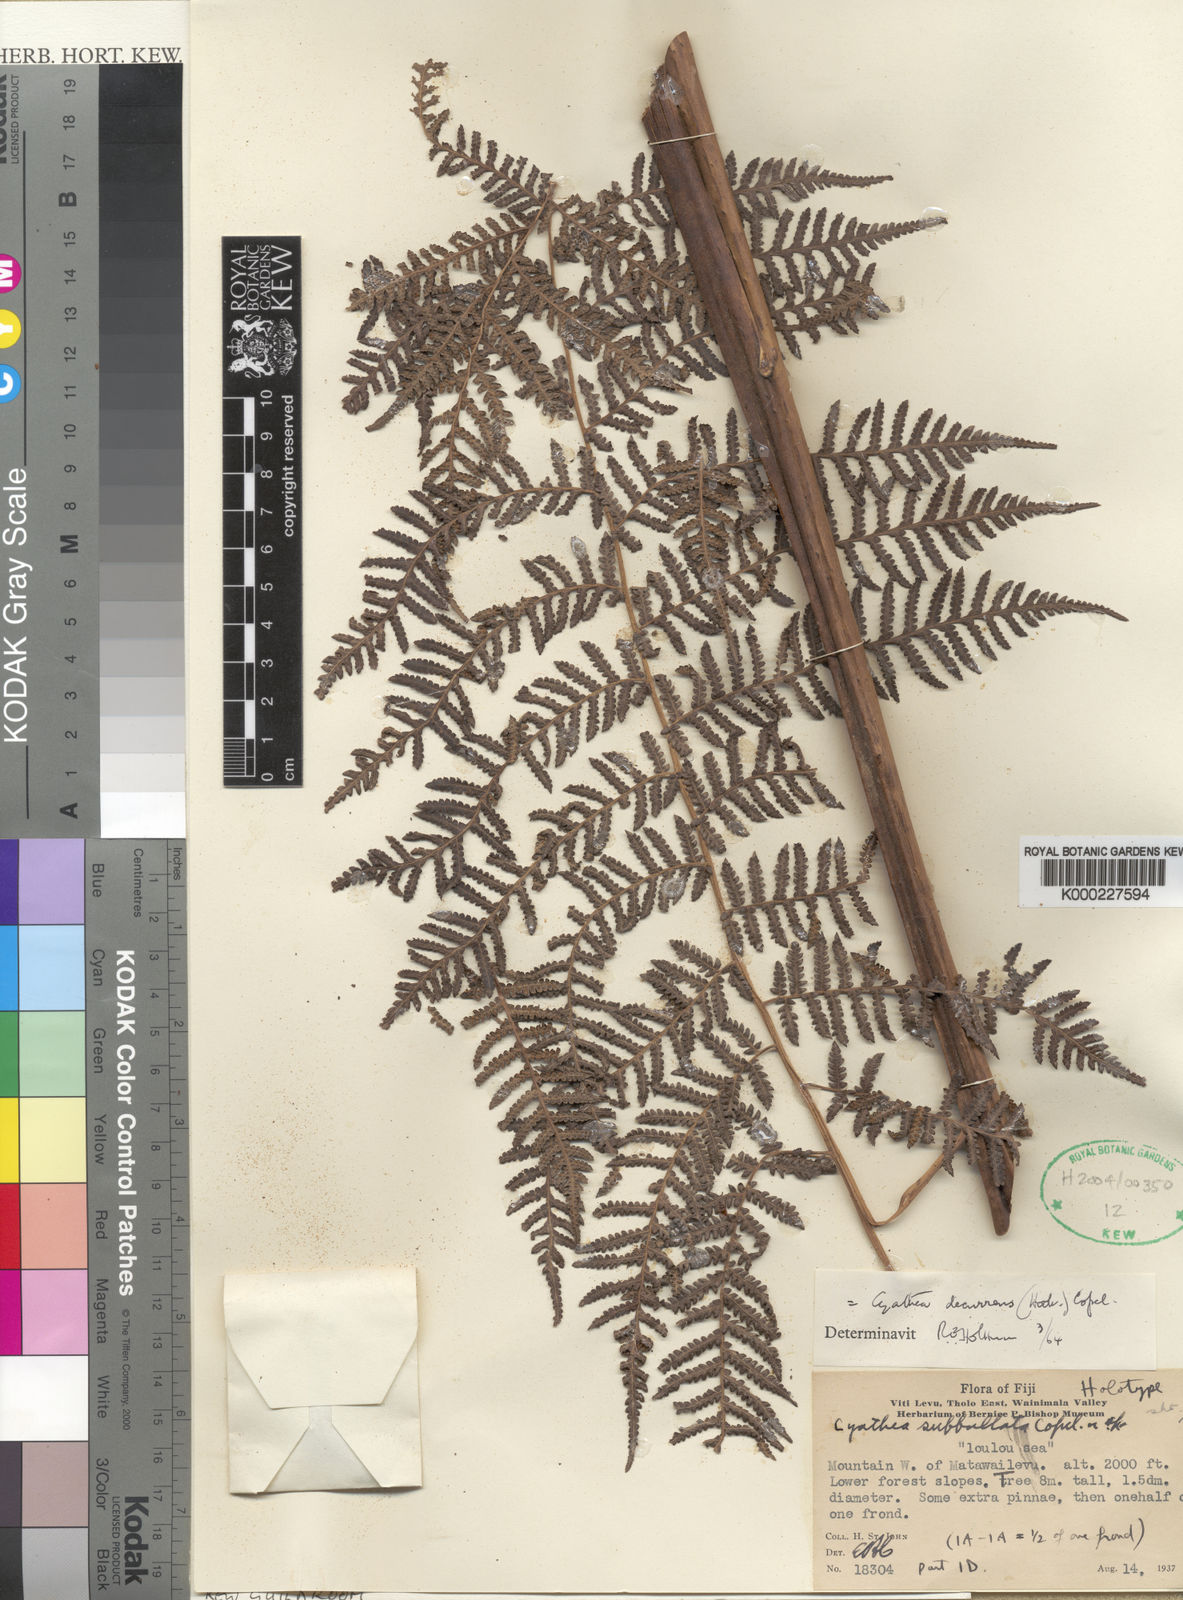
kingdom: Plantae
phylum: Tracheophyta
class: Polypodiopsida
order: Cyatheales
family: Cyatheaceae
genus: Cyathea
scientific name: Cyathea decurrens
